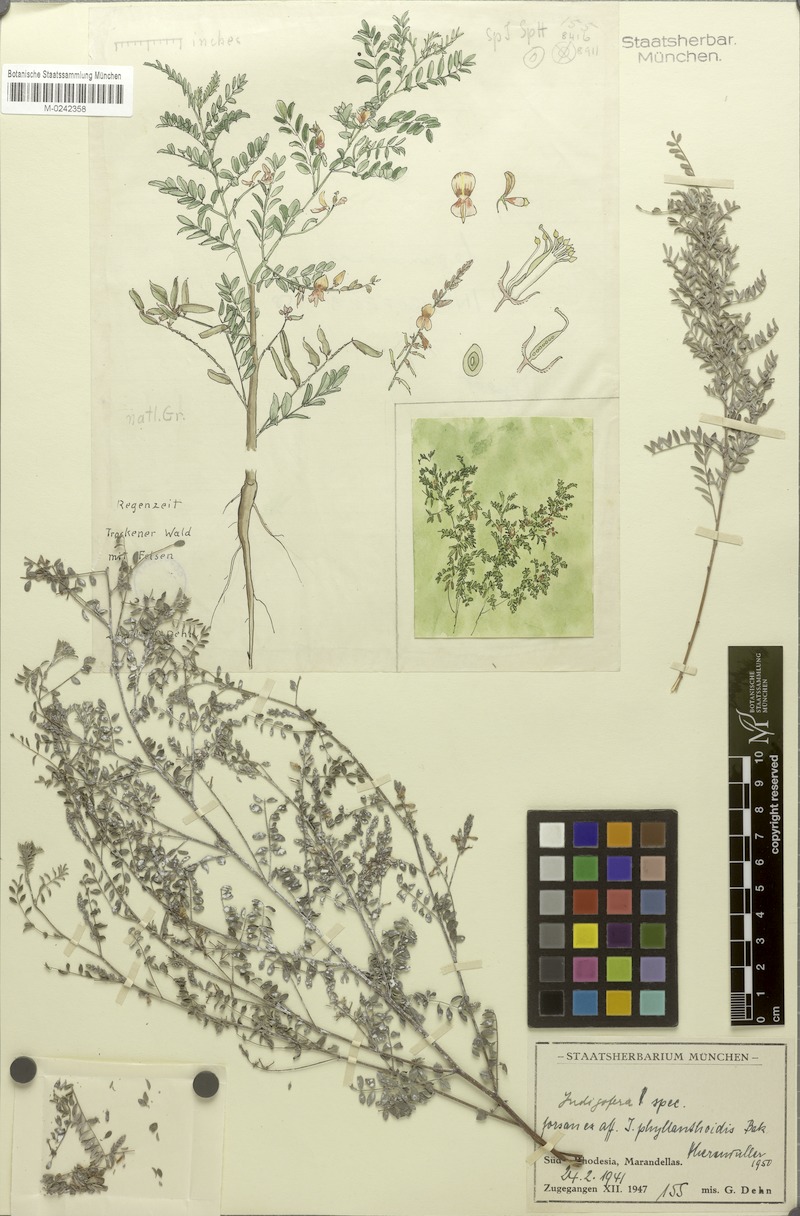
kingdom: Plantae
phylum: Tracheophyta
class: Magnoliopsida
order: Fabales
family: Fabaceae
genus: Indigofera
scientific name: Indigofera phyllanthoides
